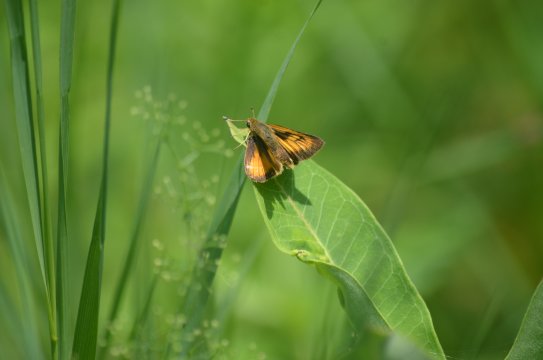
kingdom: Animalia
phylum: Arthropoda
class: Insecta
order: Lepidoptera
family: Hesperiidae
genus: Atrytone
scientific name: Atrytone delaware
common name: Delaware Skipper
